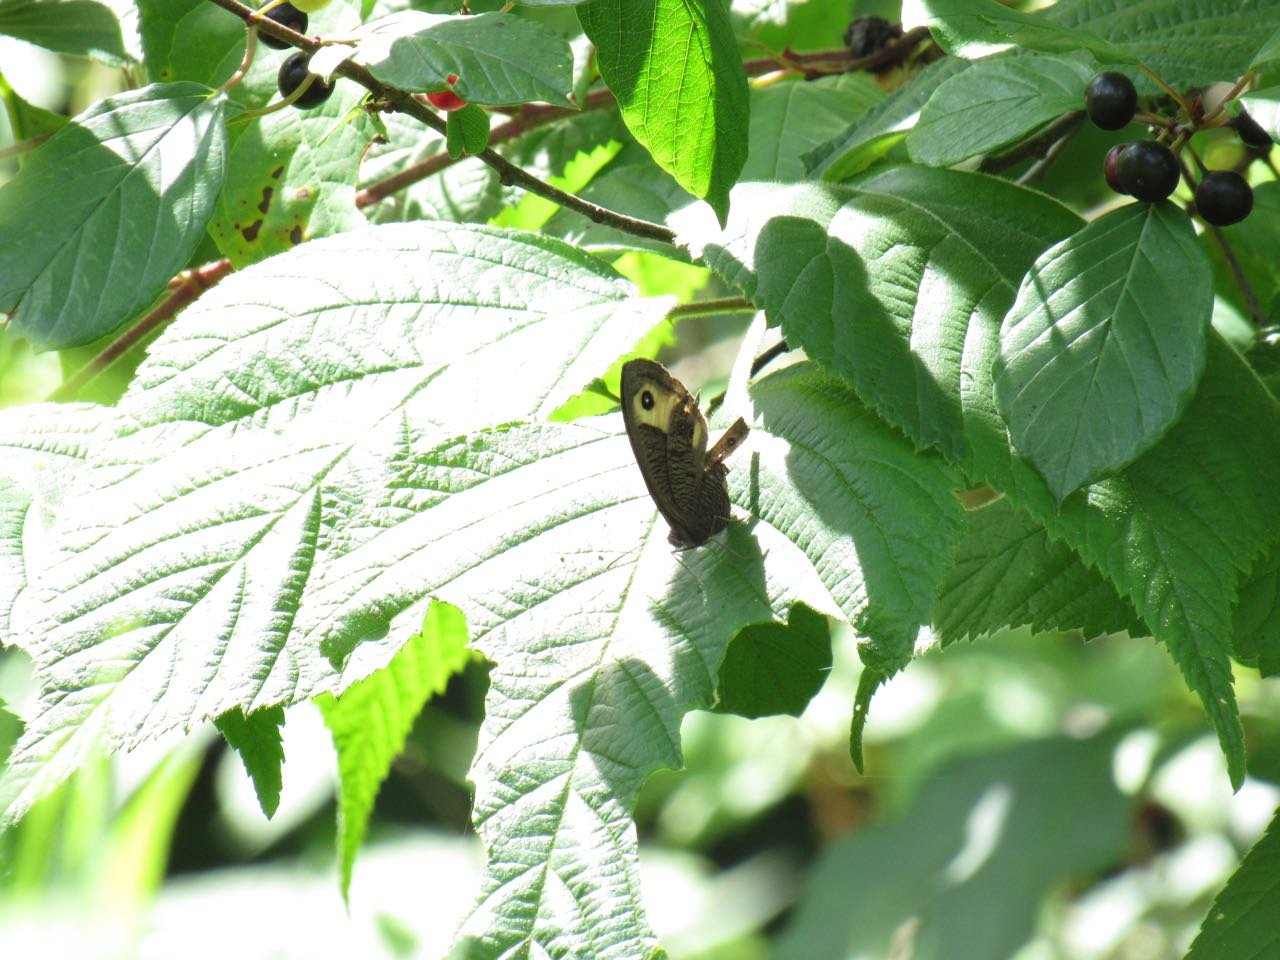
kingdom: Animalia
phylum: Arthropoda
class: Insecta
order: Lepidoptera
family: Nymphalidae
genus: Cercyonis
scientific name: Cercyonis pegala
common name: Common Wood-Nymph
